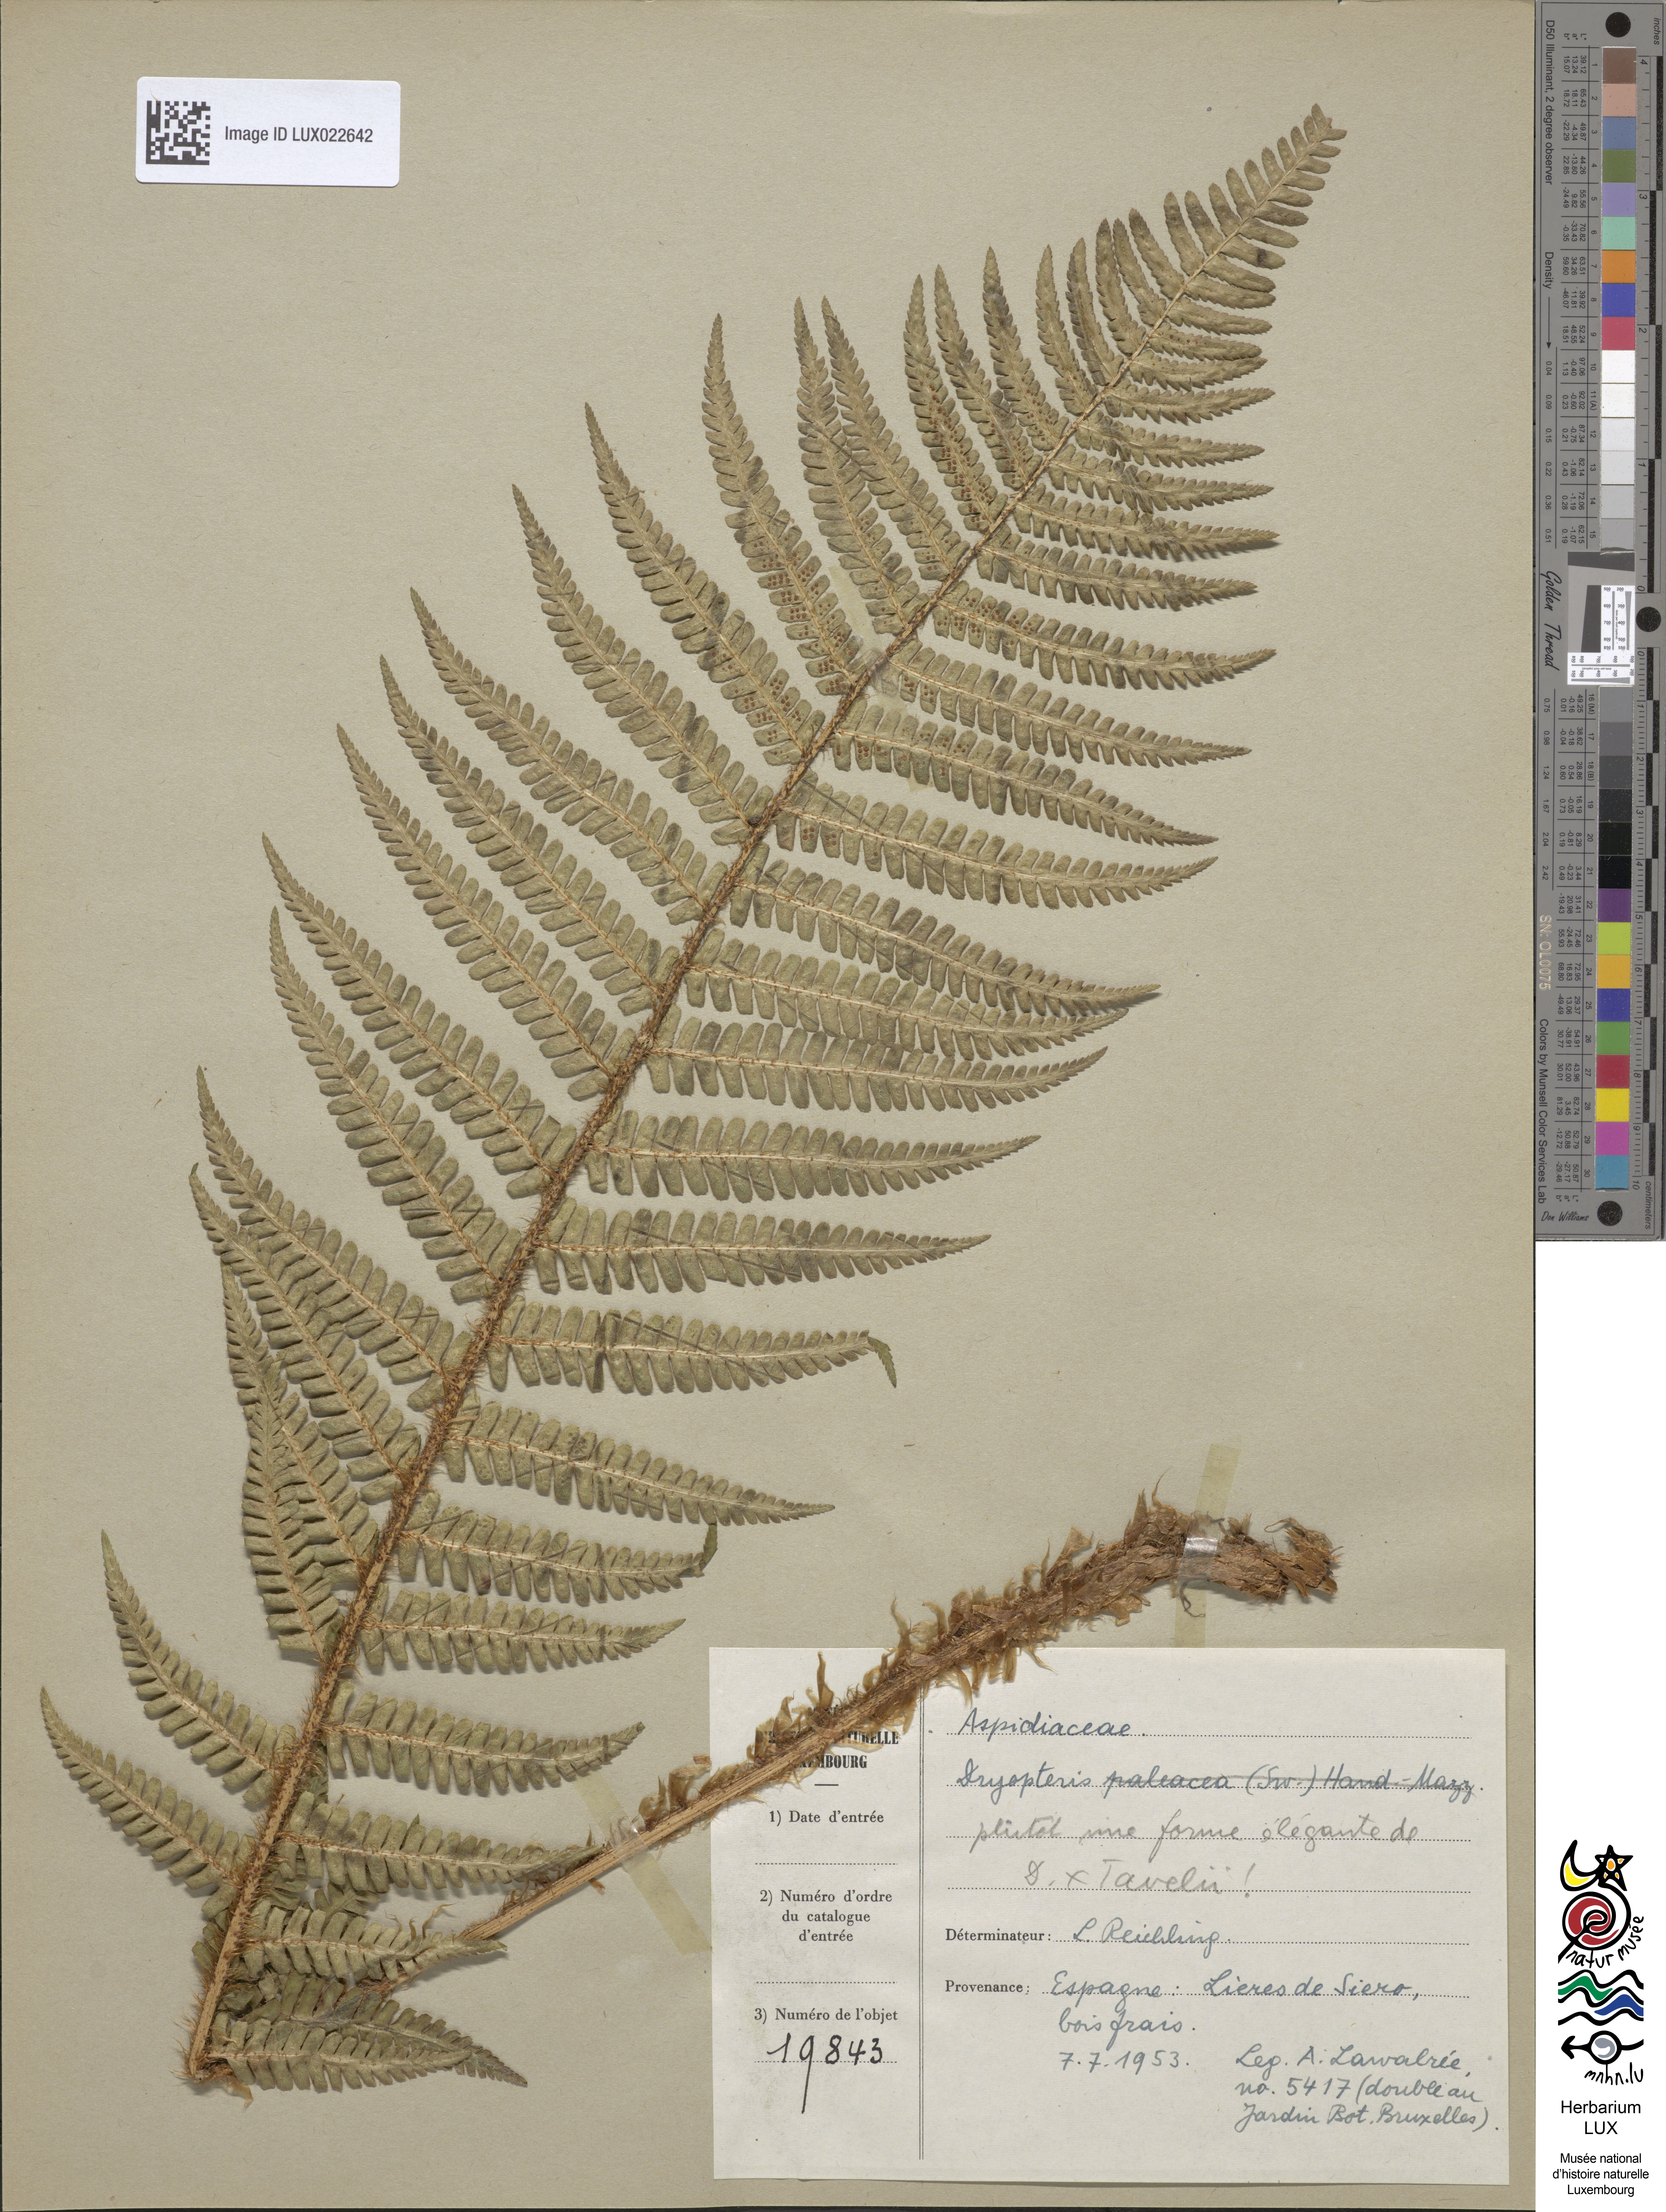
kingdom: Plantae
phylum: Tracheophyta
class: Polypodiopsida
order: Polypodiales
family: Dryopteridaceae
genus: Dryopteris
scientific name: Dryopteris borreri
